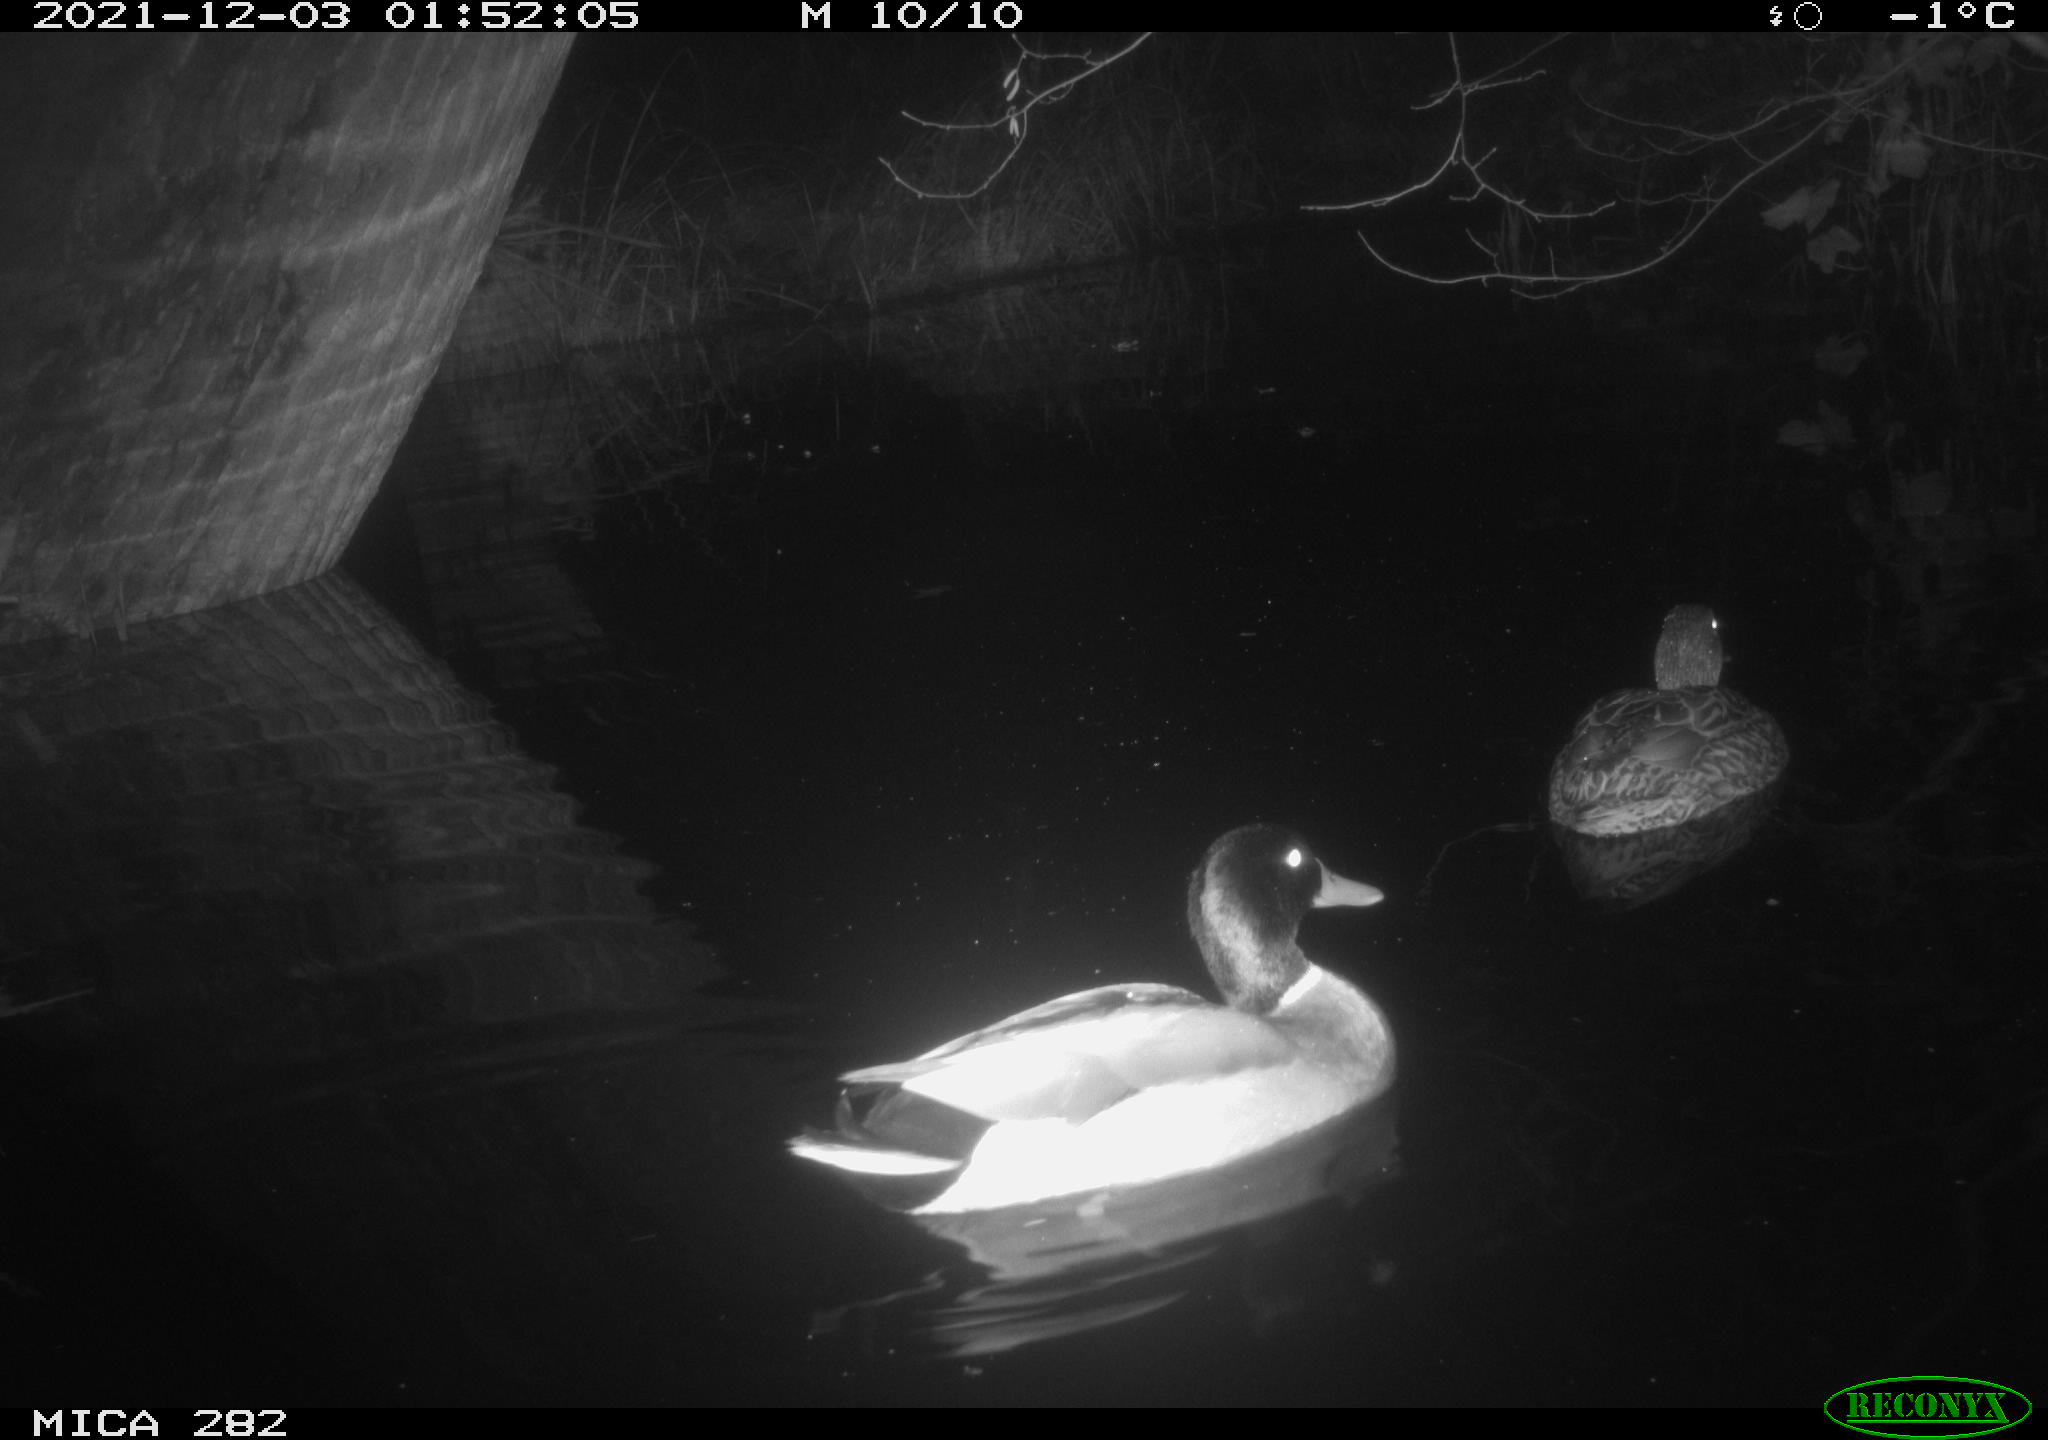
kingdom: Animalia
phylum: Chordata
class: Aves
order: Anseriformes
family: Anatidae
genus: Anas
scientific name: Anas platyrhynchos
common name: Mallard
